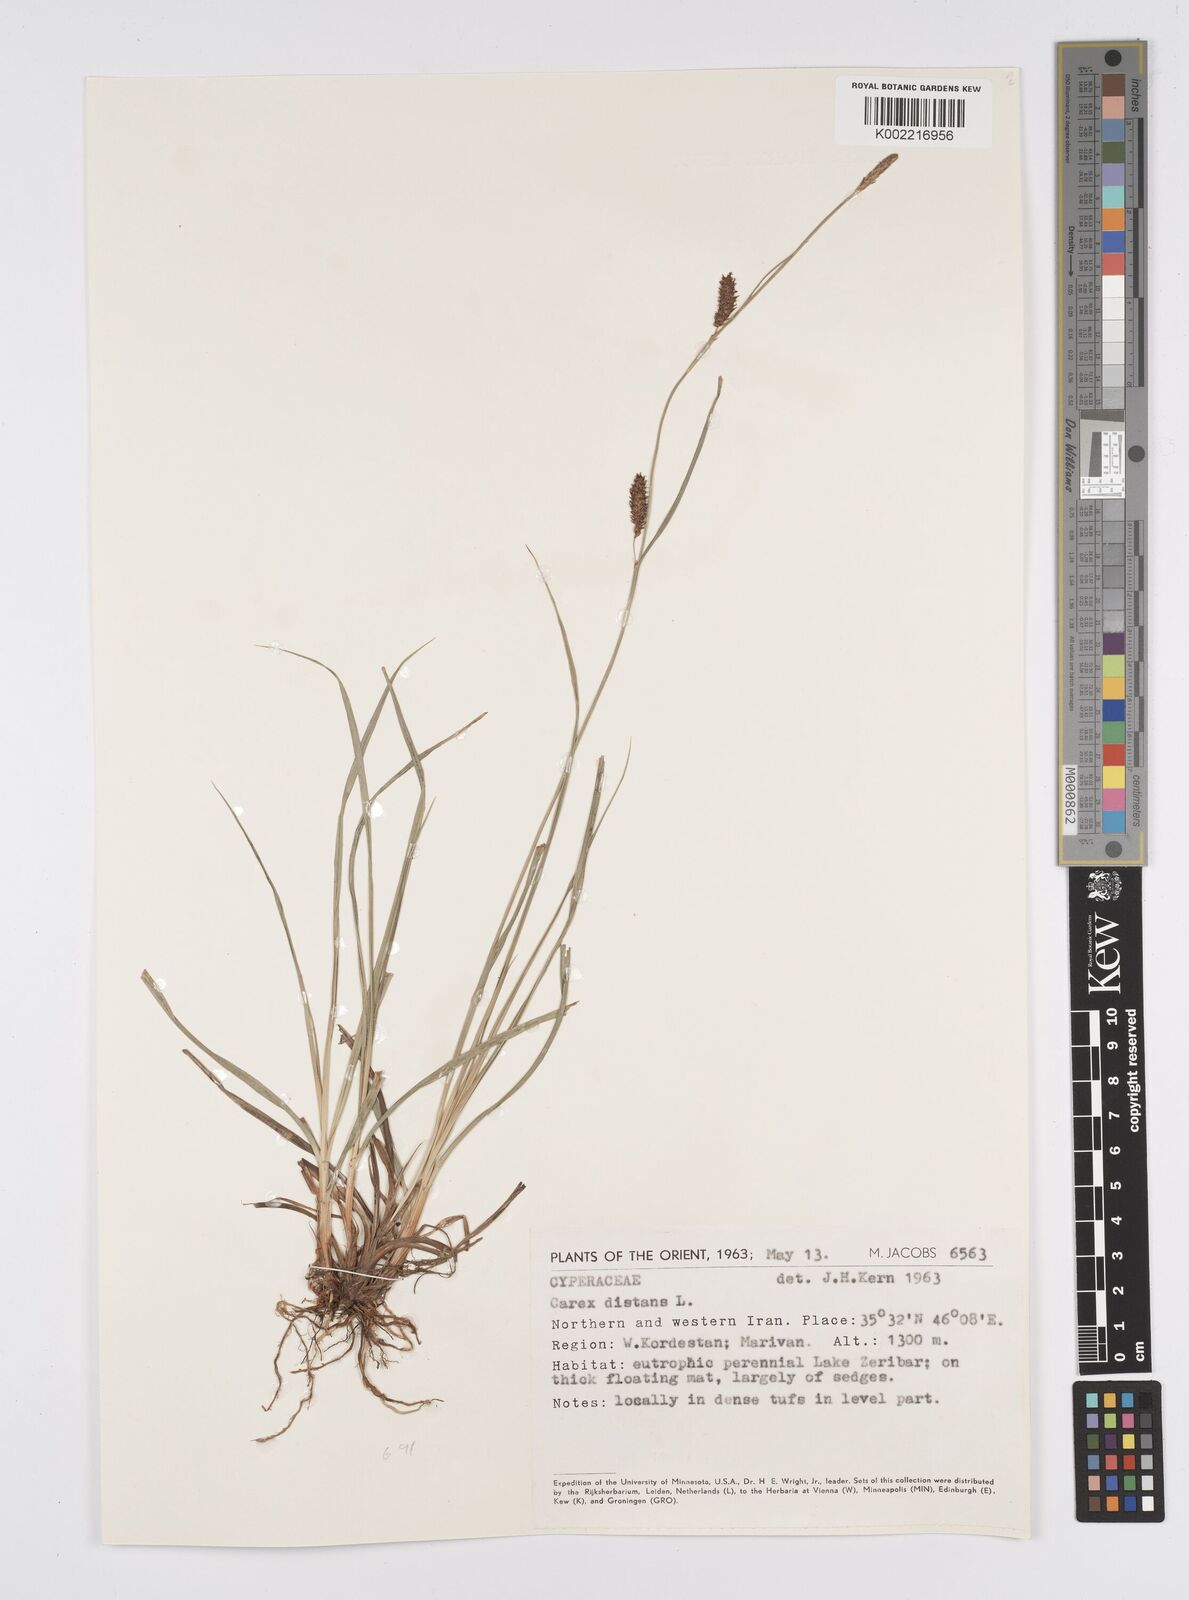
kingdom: Plantae
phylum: Tracheophyta
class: Liliopsida
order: Poales
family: Cyperaceae
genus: Carex
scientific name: Carex distans
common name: Distant sedge
